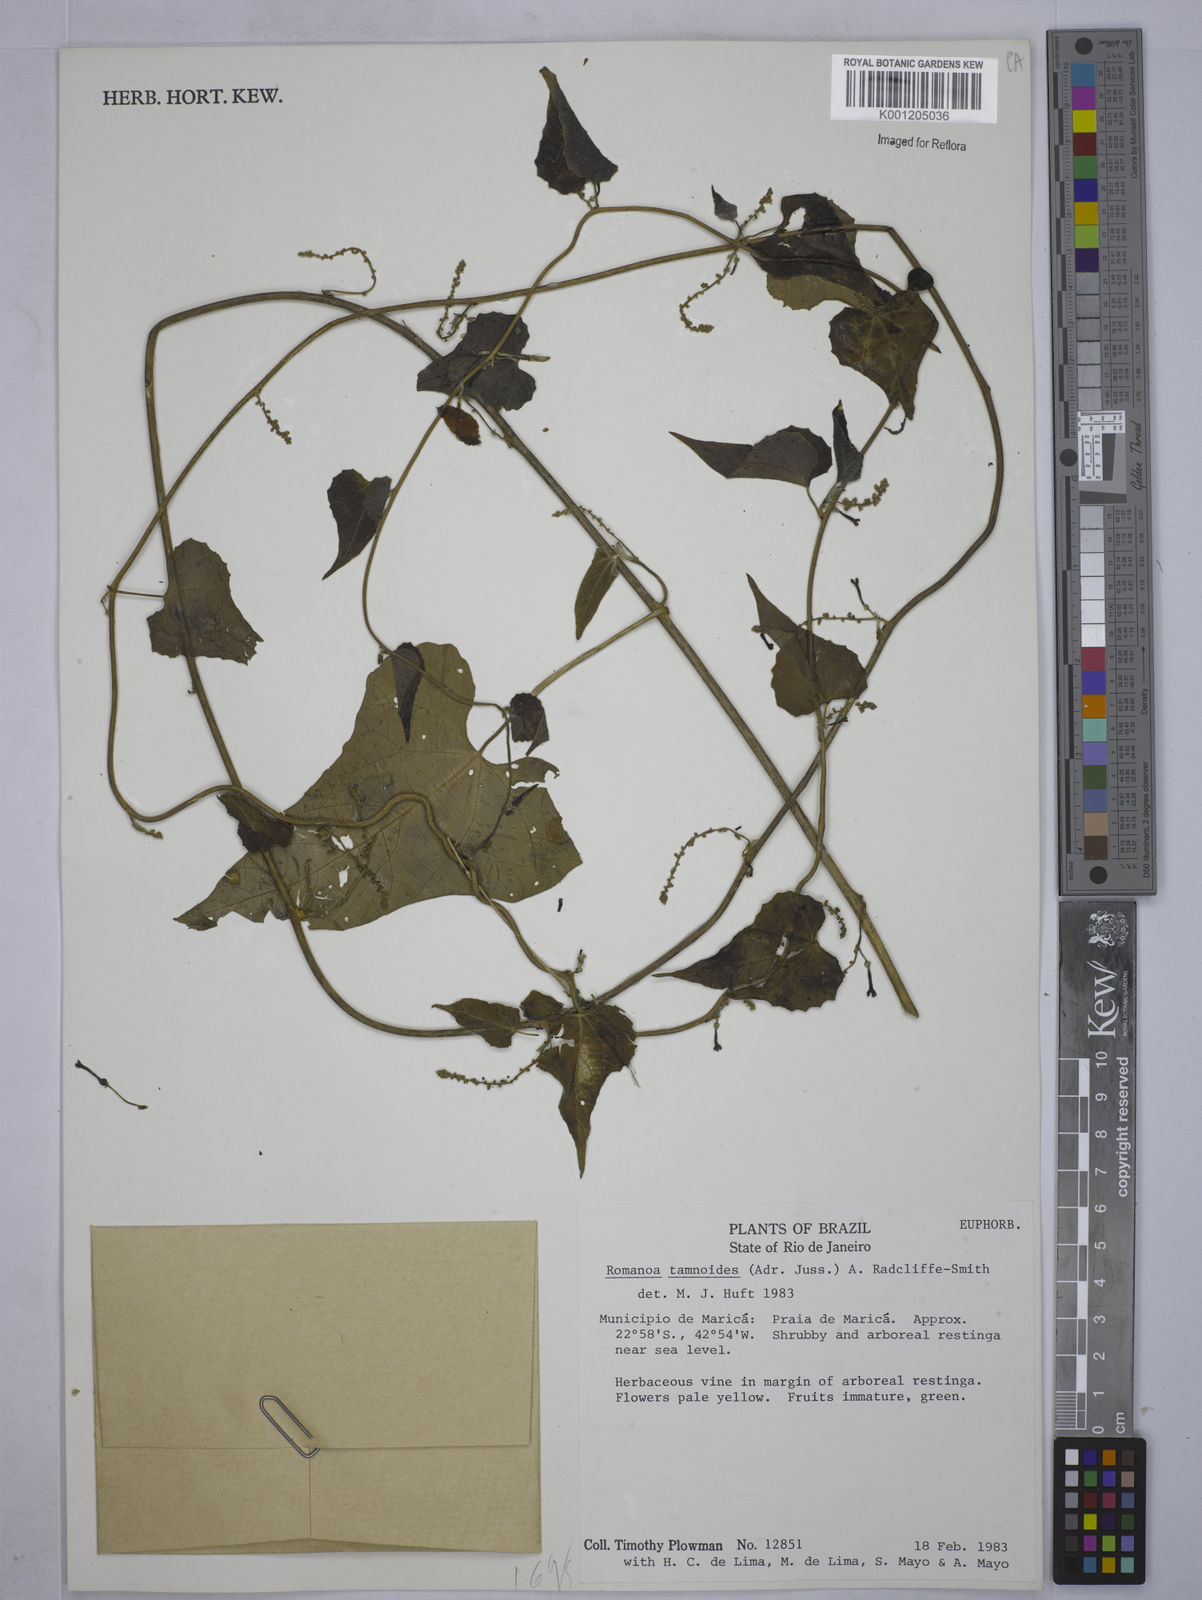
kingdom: Plantae
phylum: Tracheophyta
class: Magnoliopsida
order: Malpighiales
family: Euphorbiaceae
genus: Romanoa
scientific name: Romanoa tamnoides
